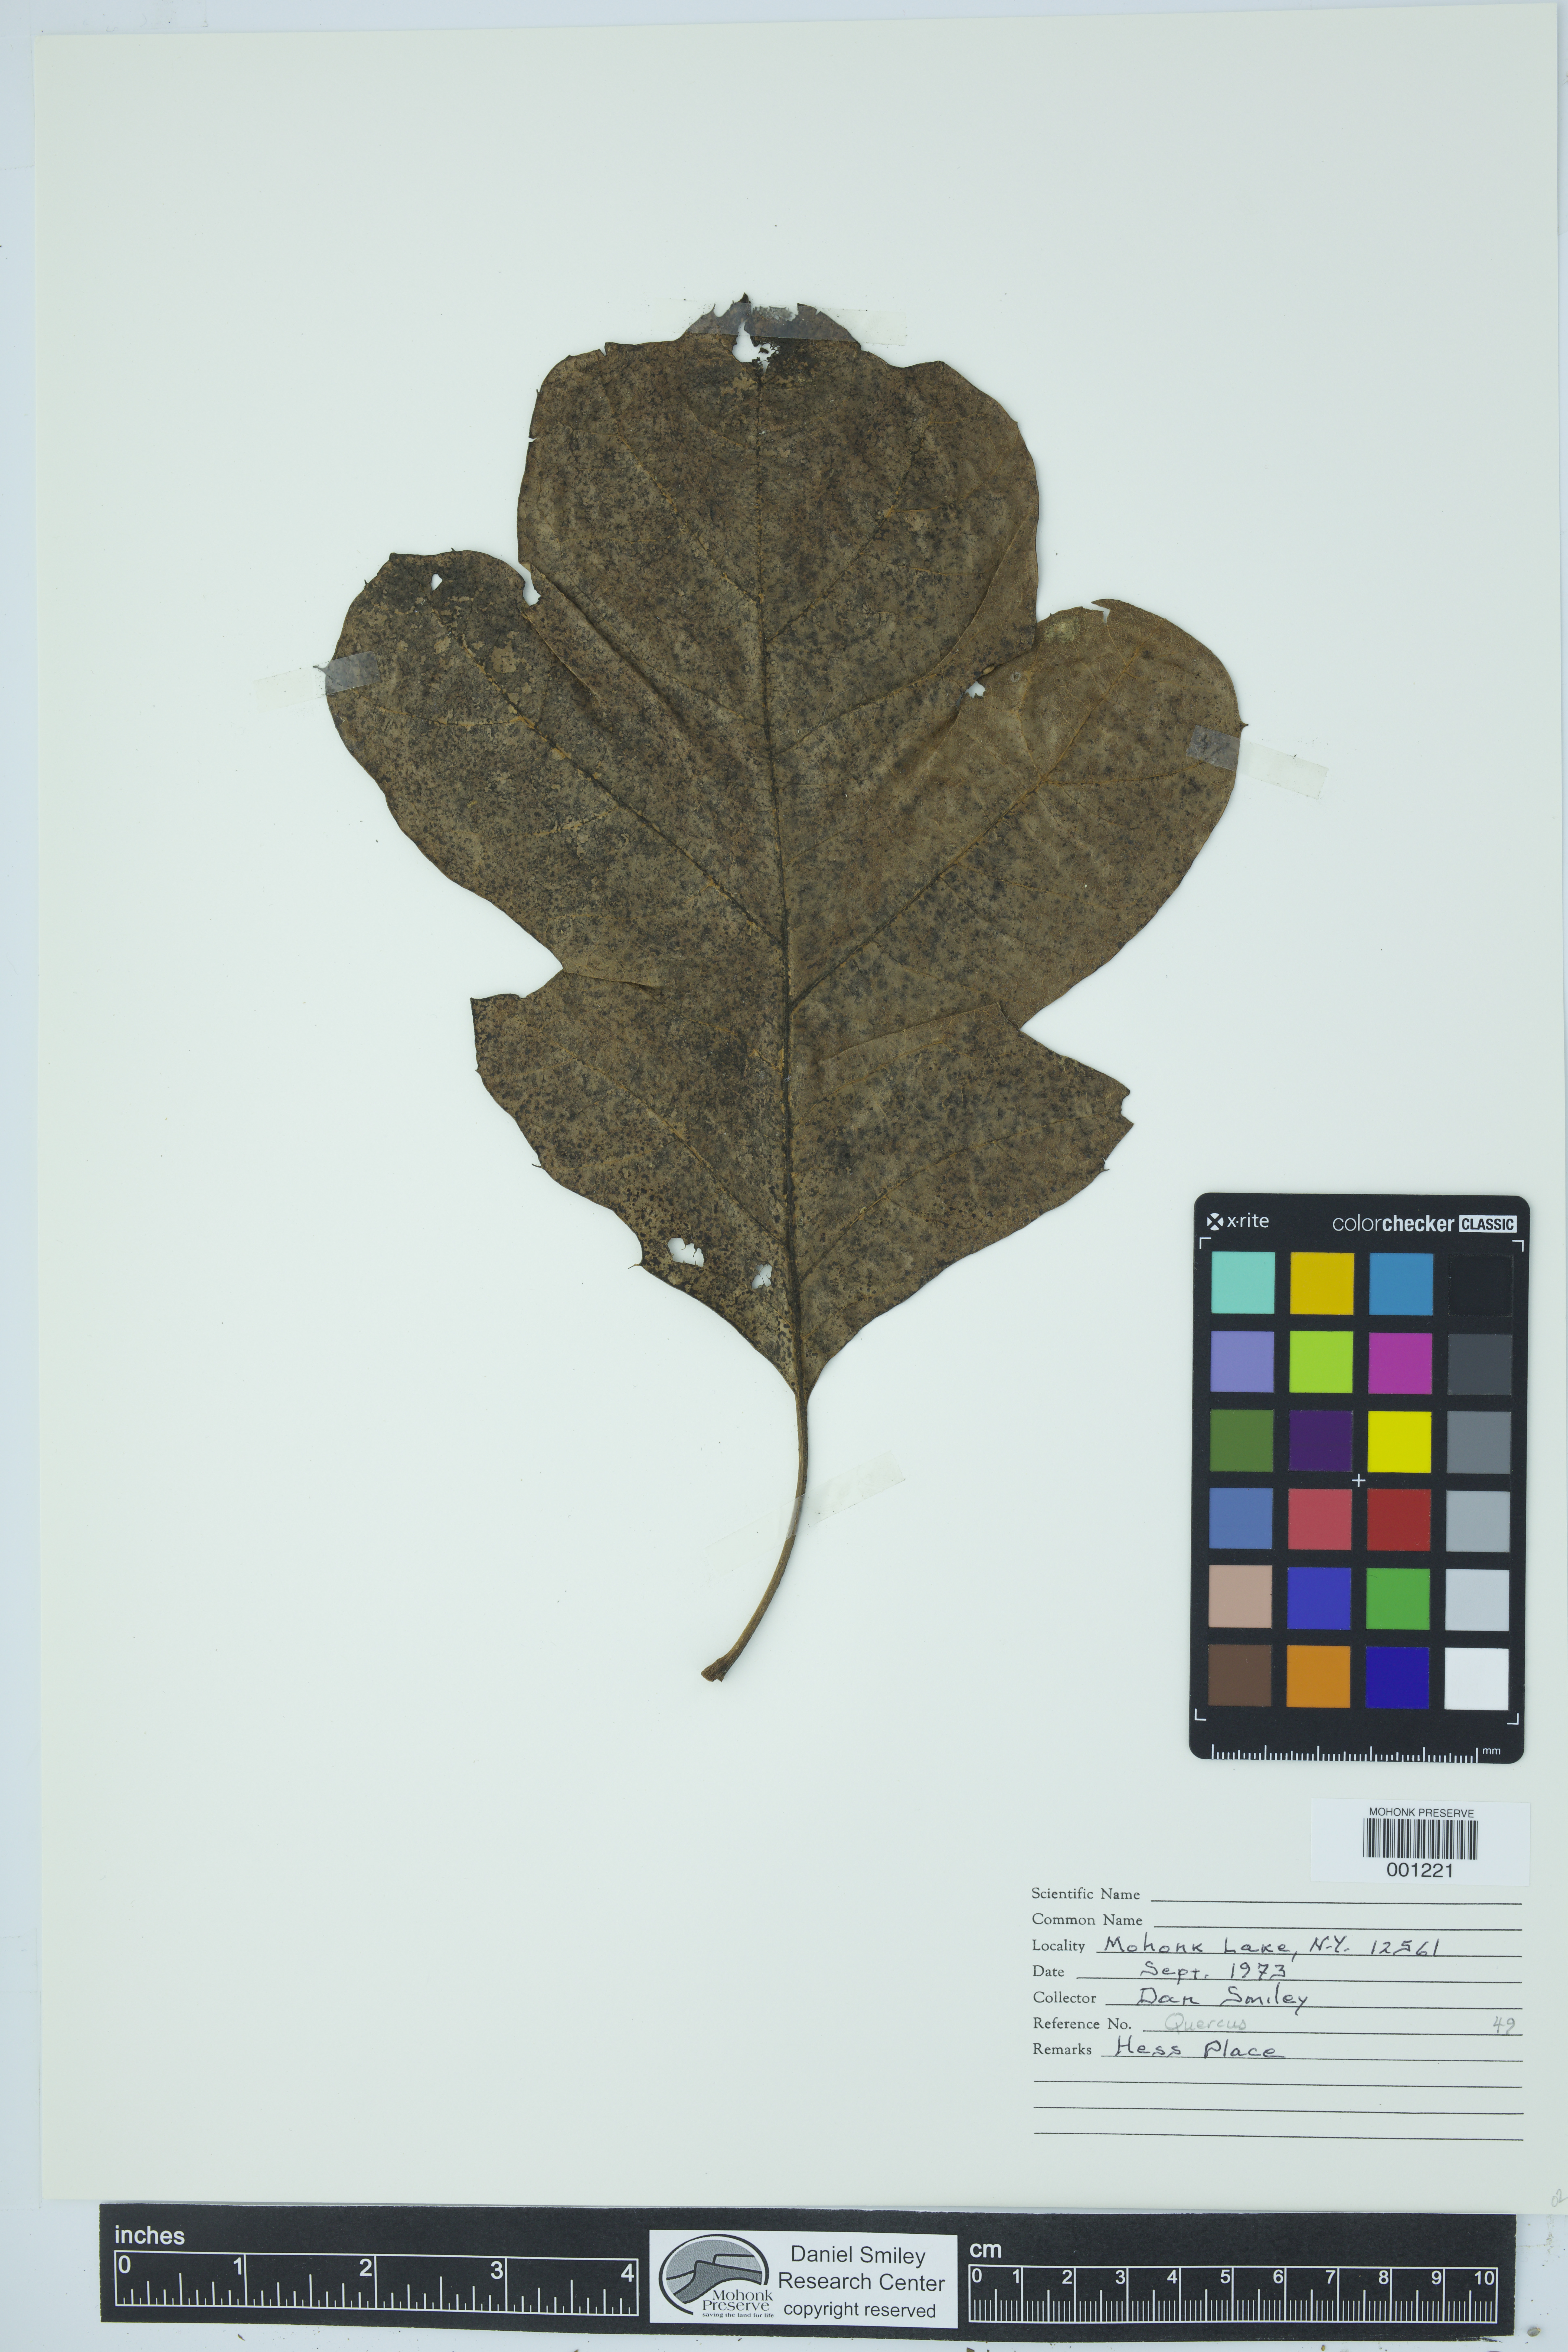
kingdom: Plantae
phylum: Tracheophyta
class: Magnoliopsida
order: Fagales
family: Fagaceae
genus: Quercus
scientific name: Quercus
